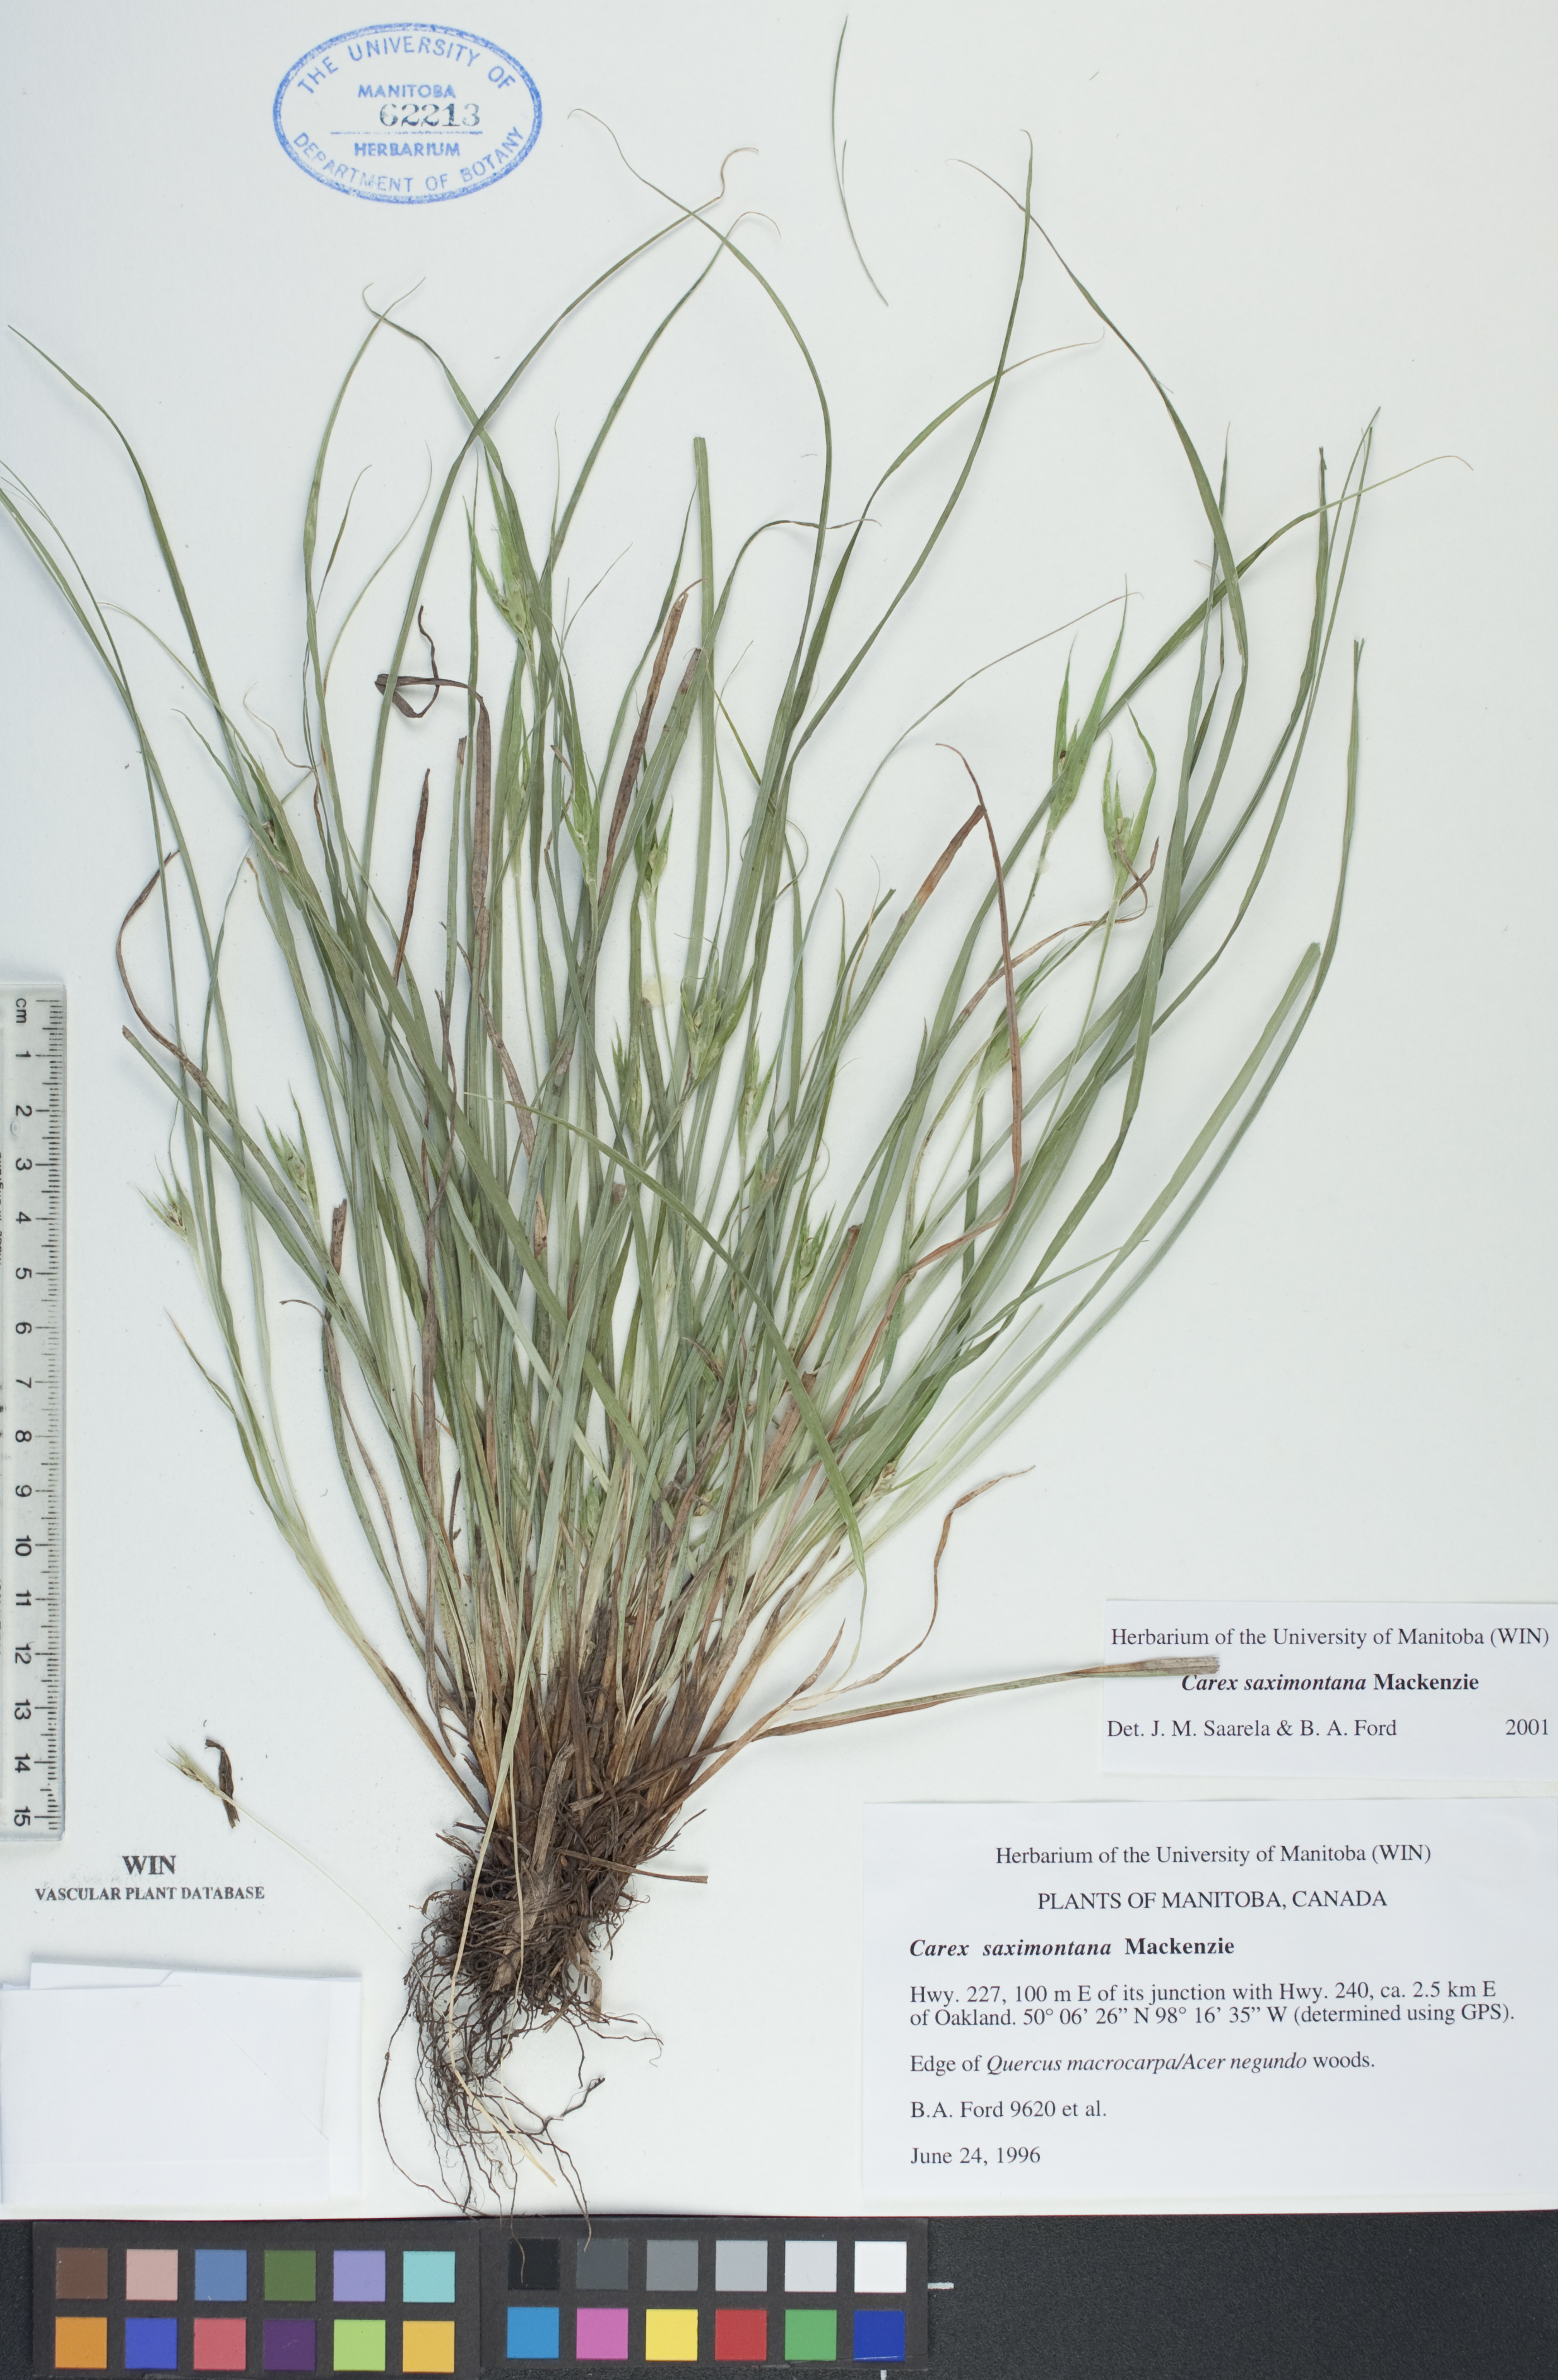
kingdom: Plantae
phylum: Tracheophyta
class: Liliopsida
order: Poales
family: Cyperaceae
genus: Carex
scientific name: Carex saximontana
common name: Rocky mountain sedge
